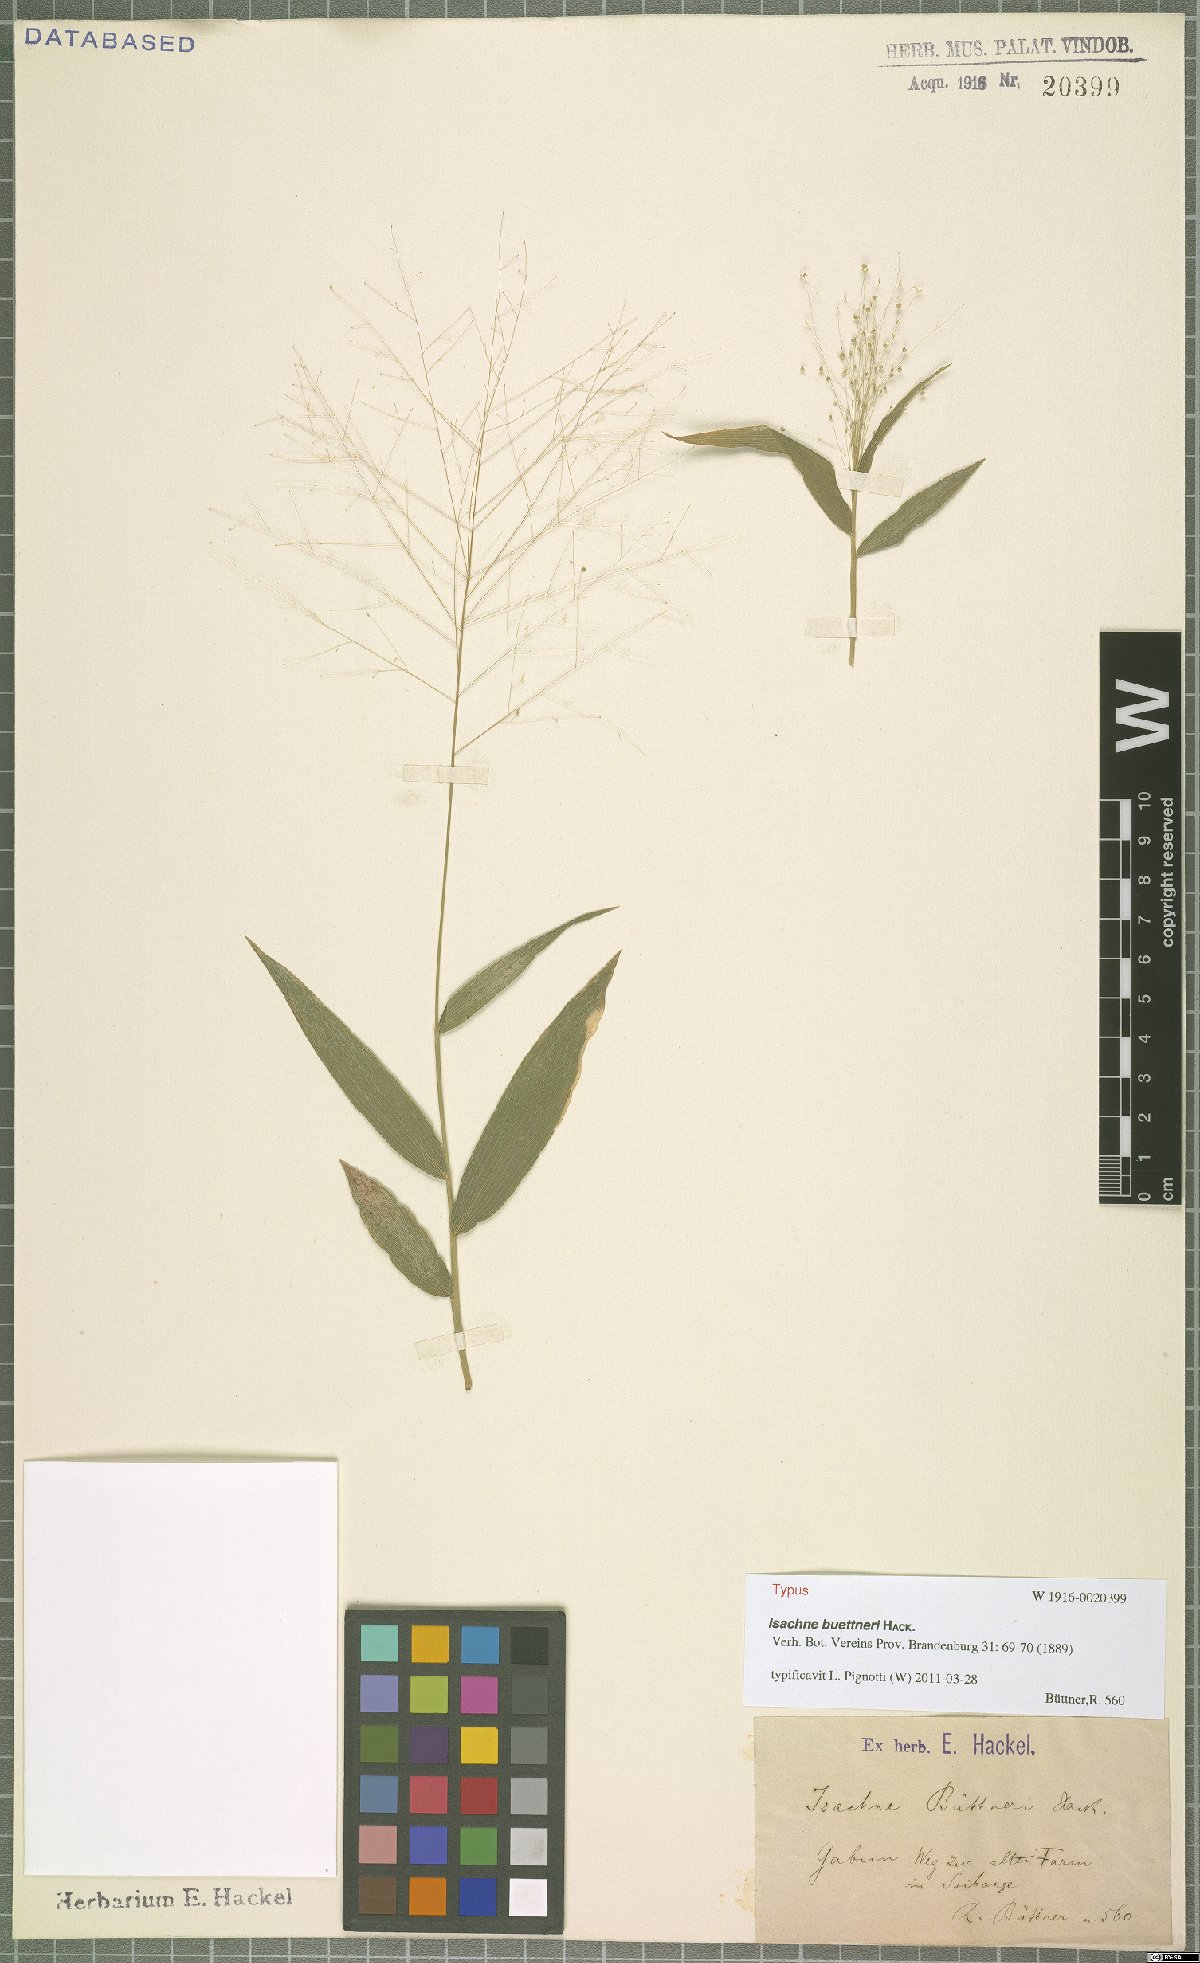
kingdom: Plantae
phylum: Tracheophyta
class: Liliopsida
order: Poales
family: Poaceae
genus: Isachne
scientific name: Isachne albens
